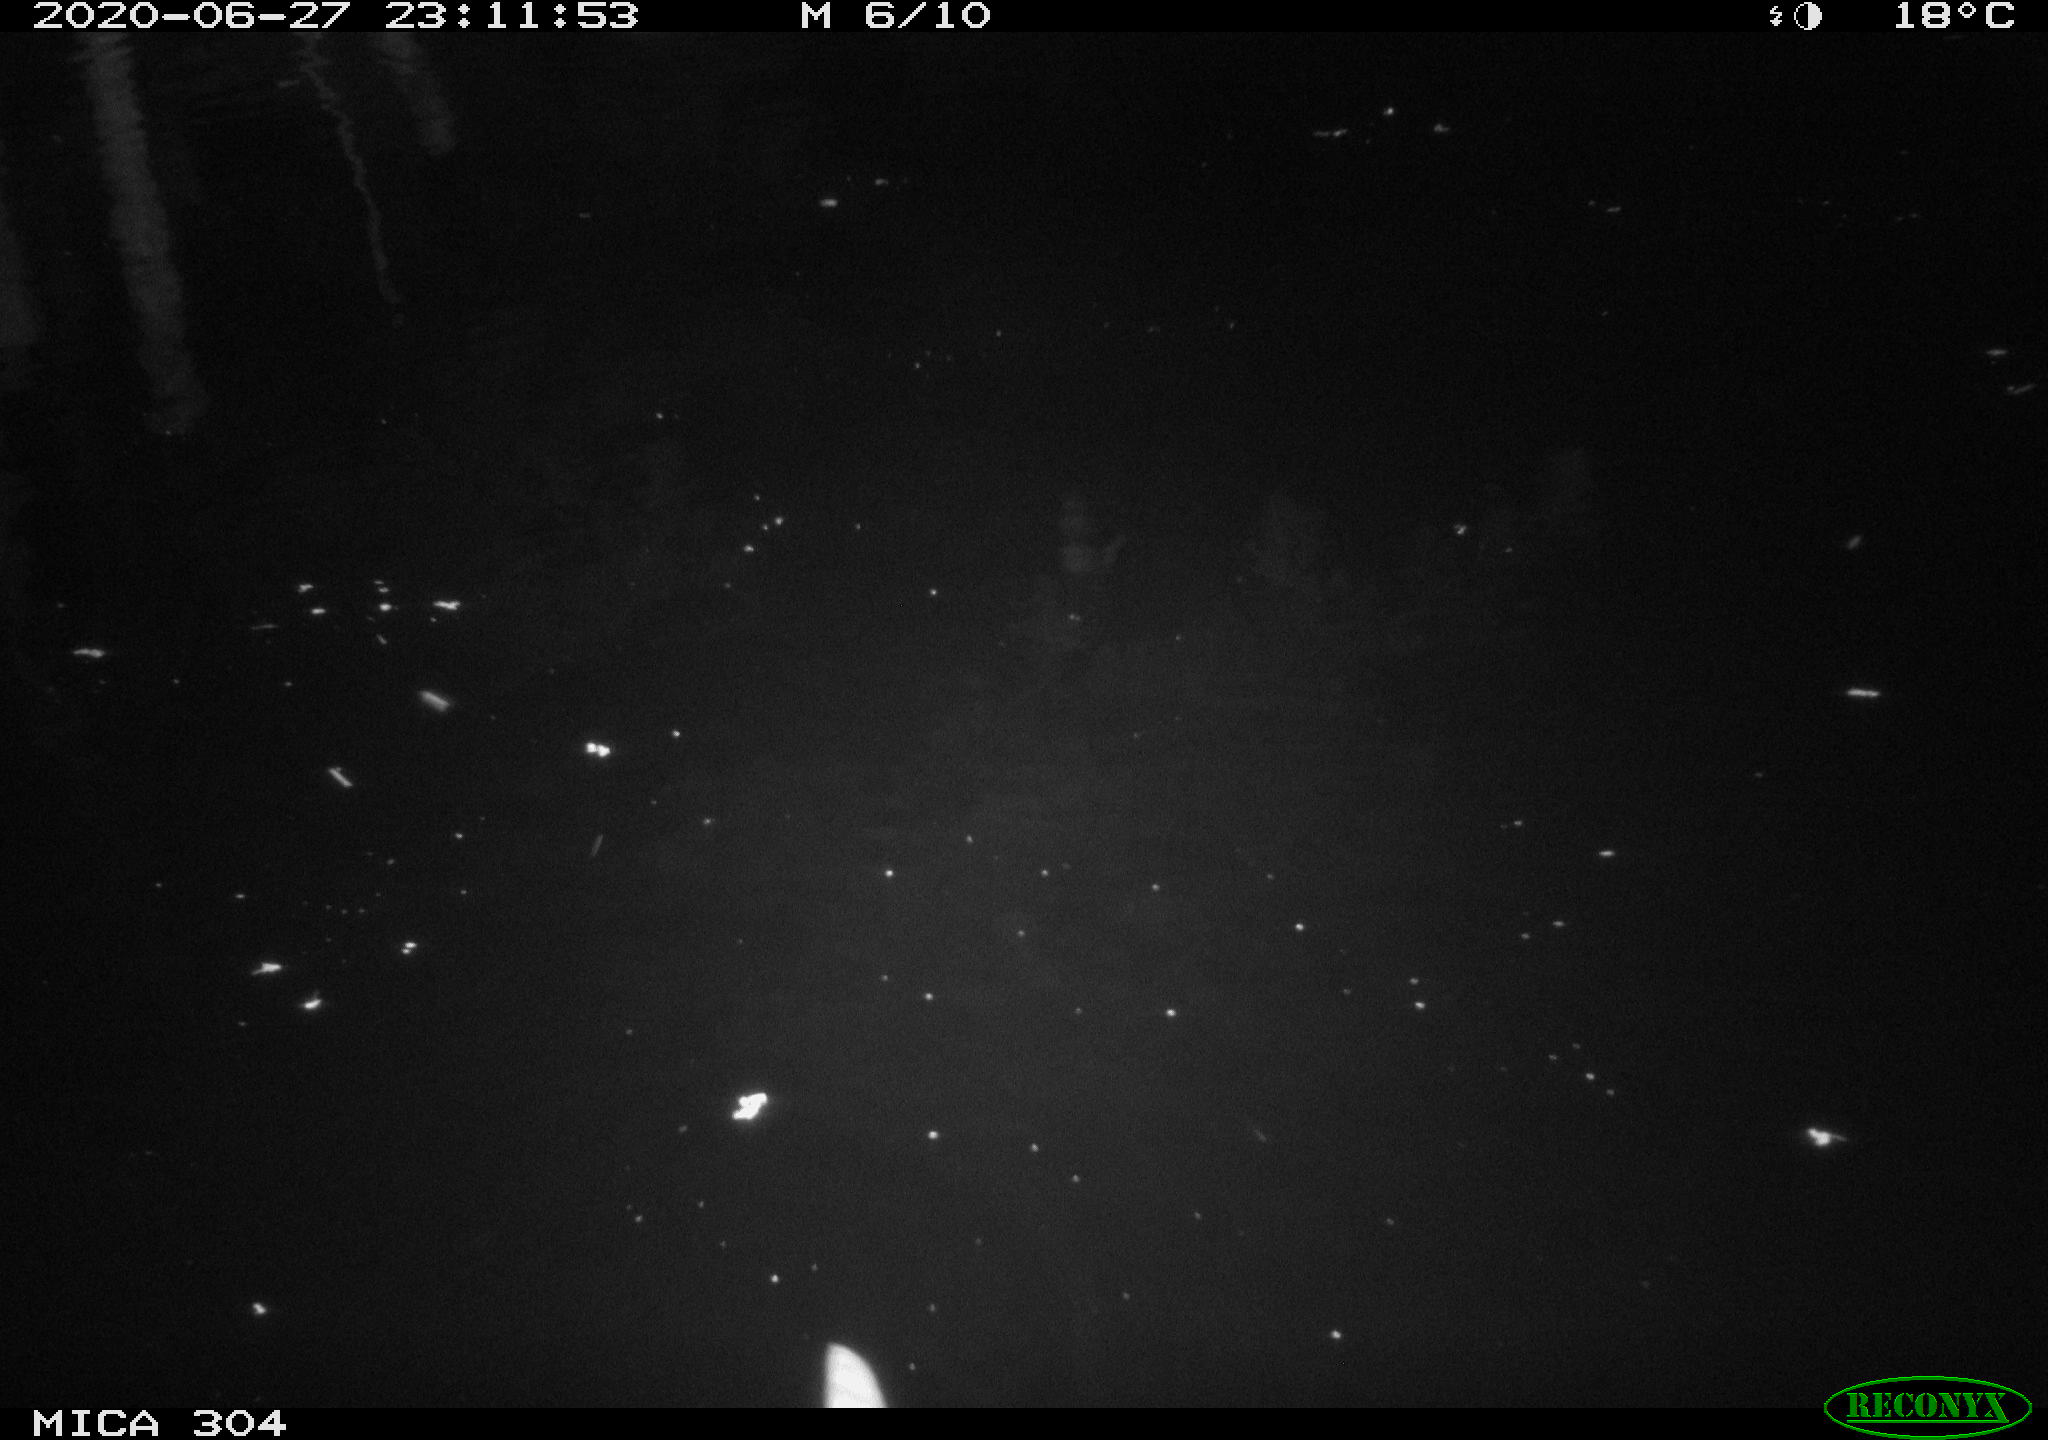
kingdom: Animalia
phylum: Chordata
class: Aves
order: Anseriformes
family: Anatidae
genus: Anas
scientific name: Anas platyrhynchos
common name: Mallard
